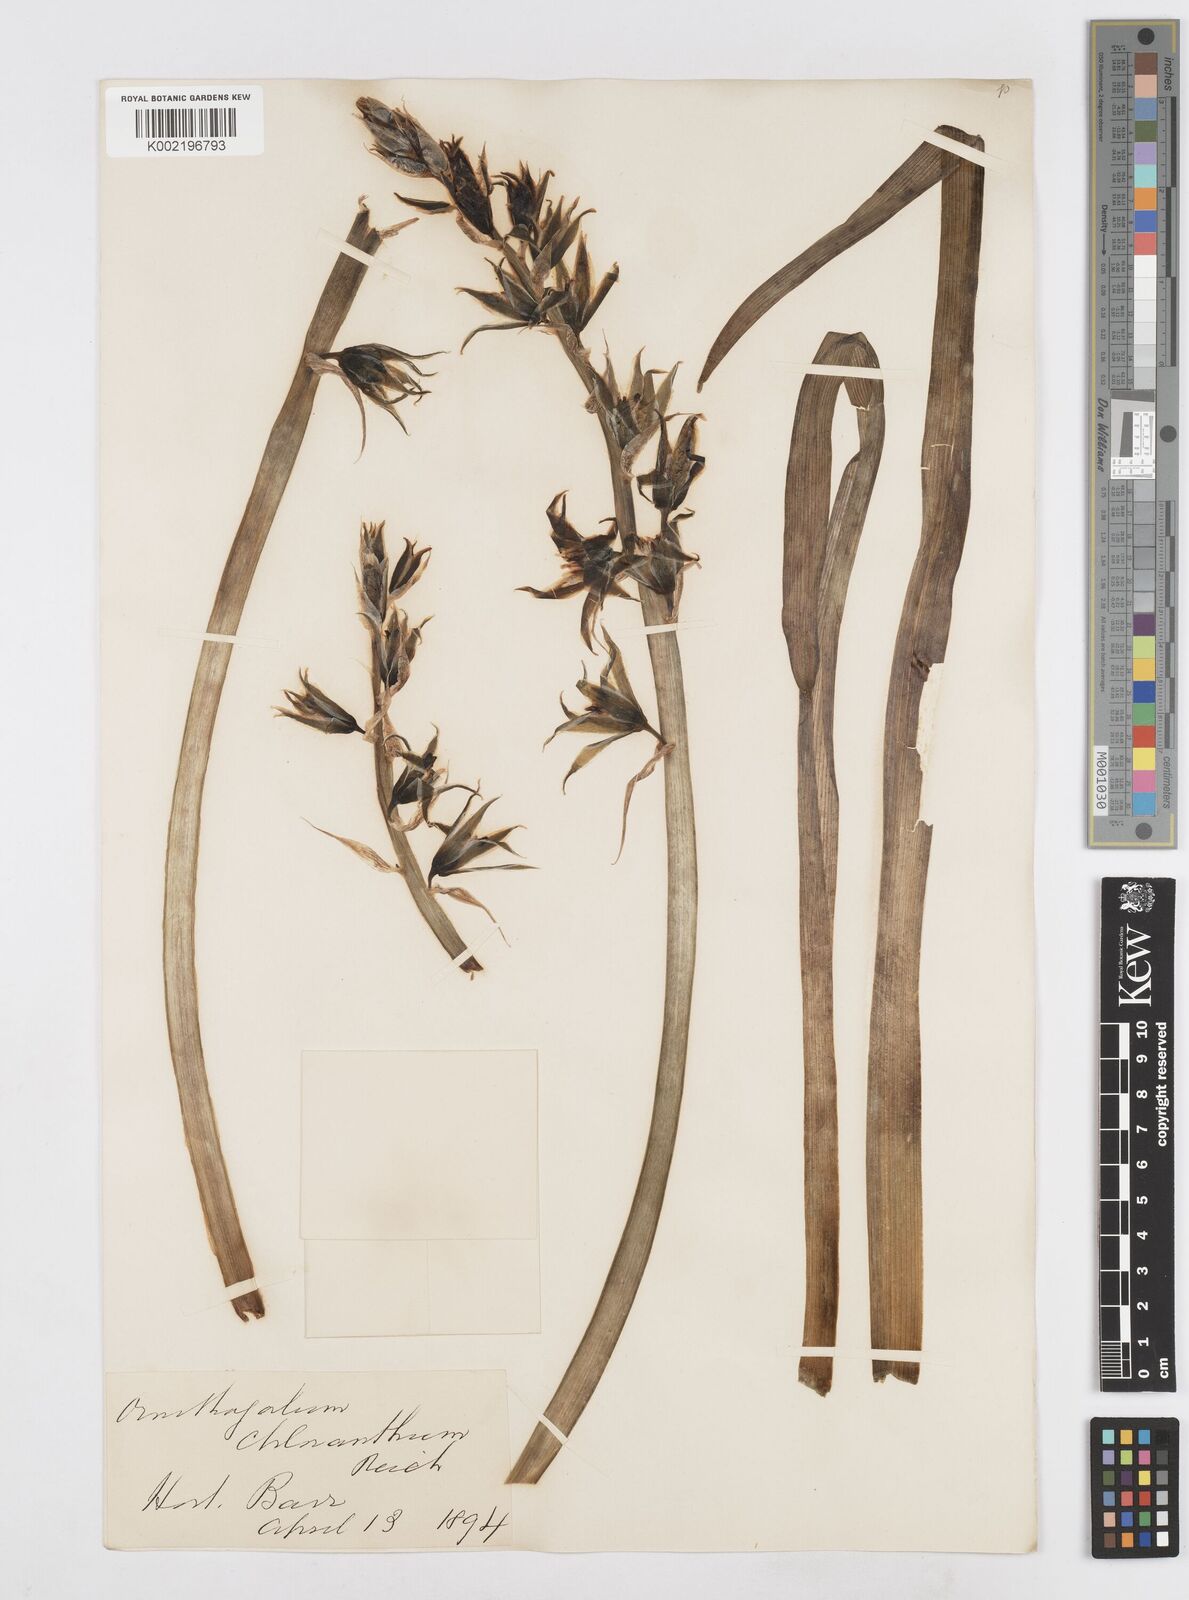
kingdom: Plantae
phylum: Tracheophyta
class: Liliopsida
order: Asparagales
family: Asparagaceae
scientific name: Asparagaceae
